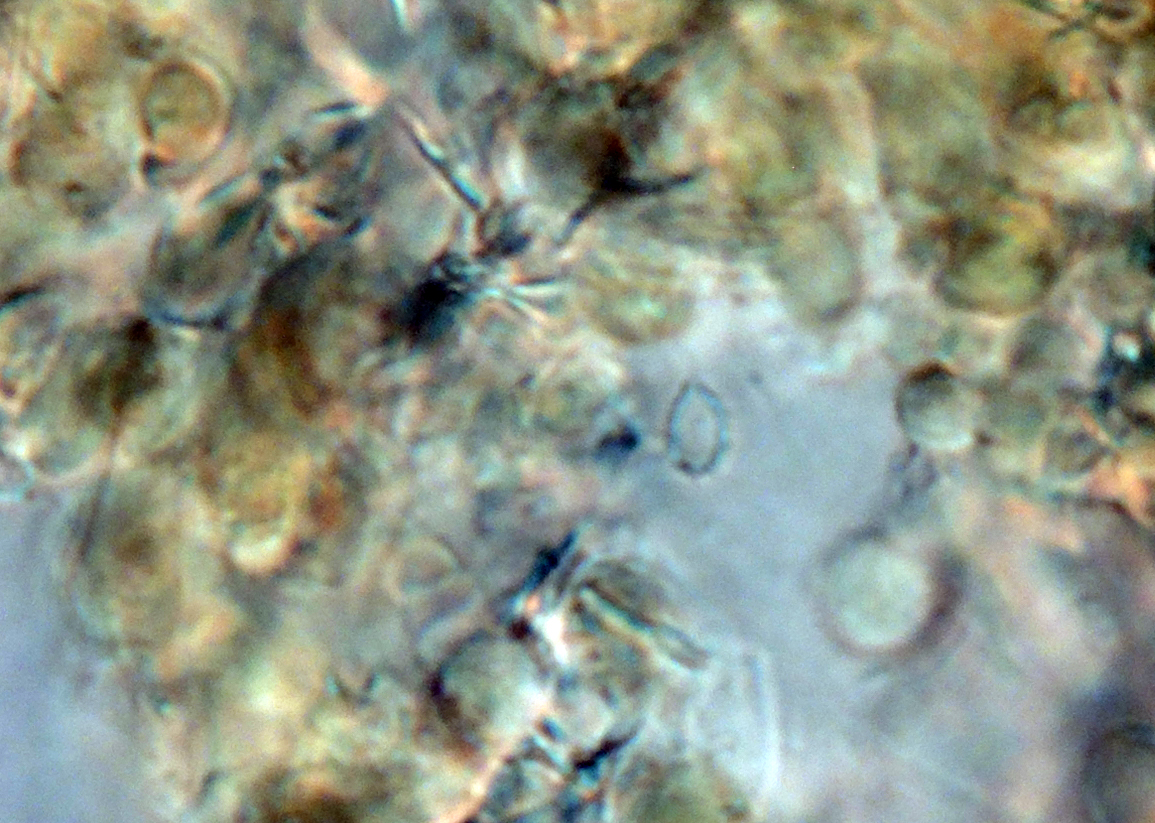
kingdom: Fungi
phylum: Basidiomycota
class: Agaricomycetes
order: Trechisporales
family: Sistotremataceae
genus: Trechispora
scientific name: Trechispora
